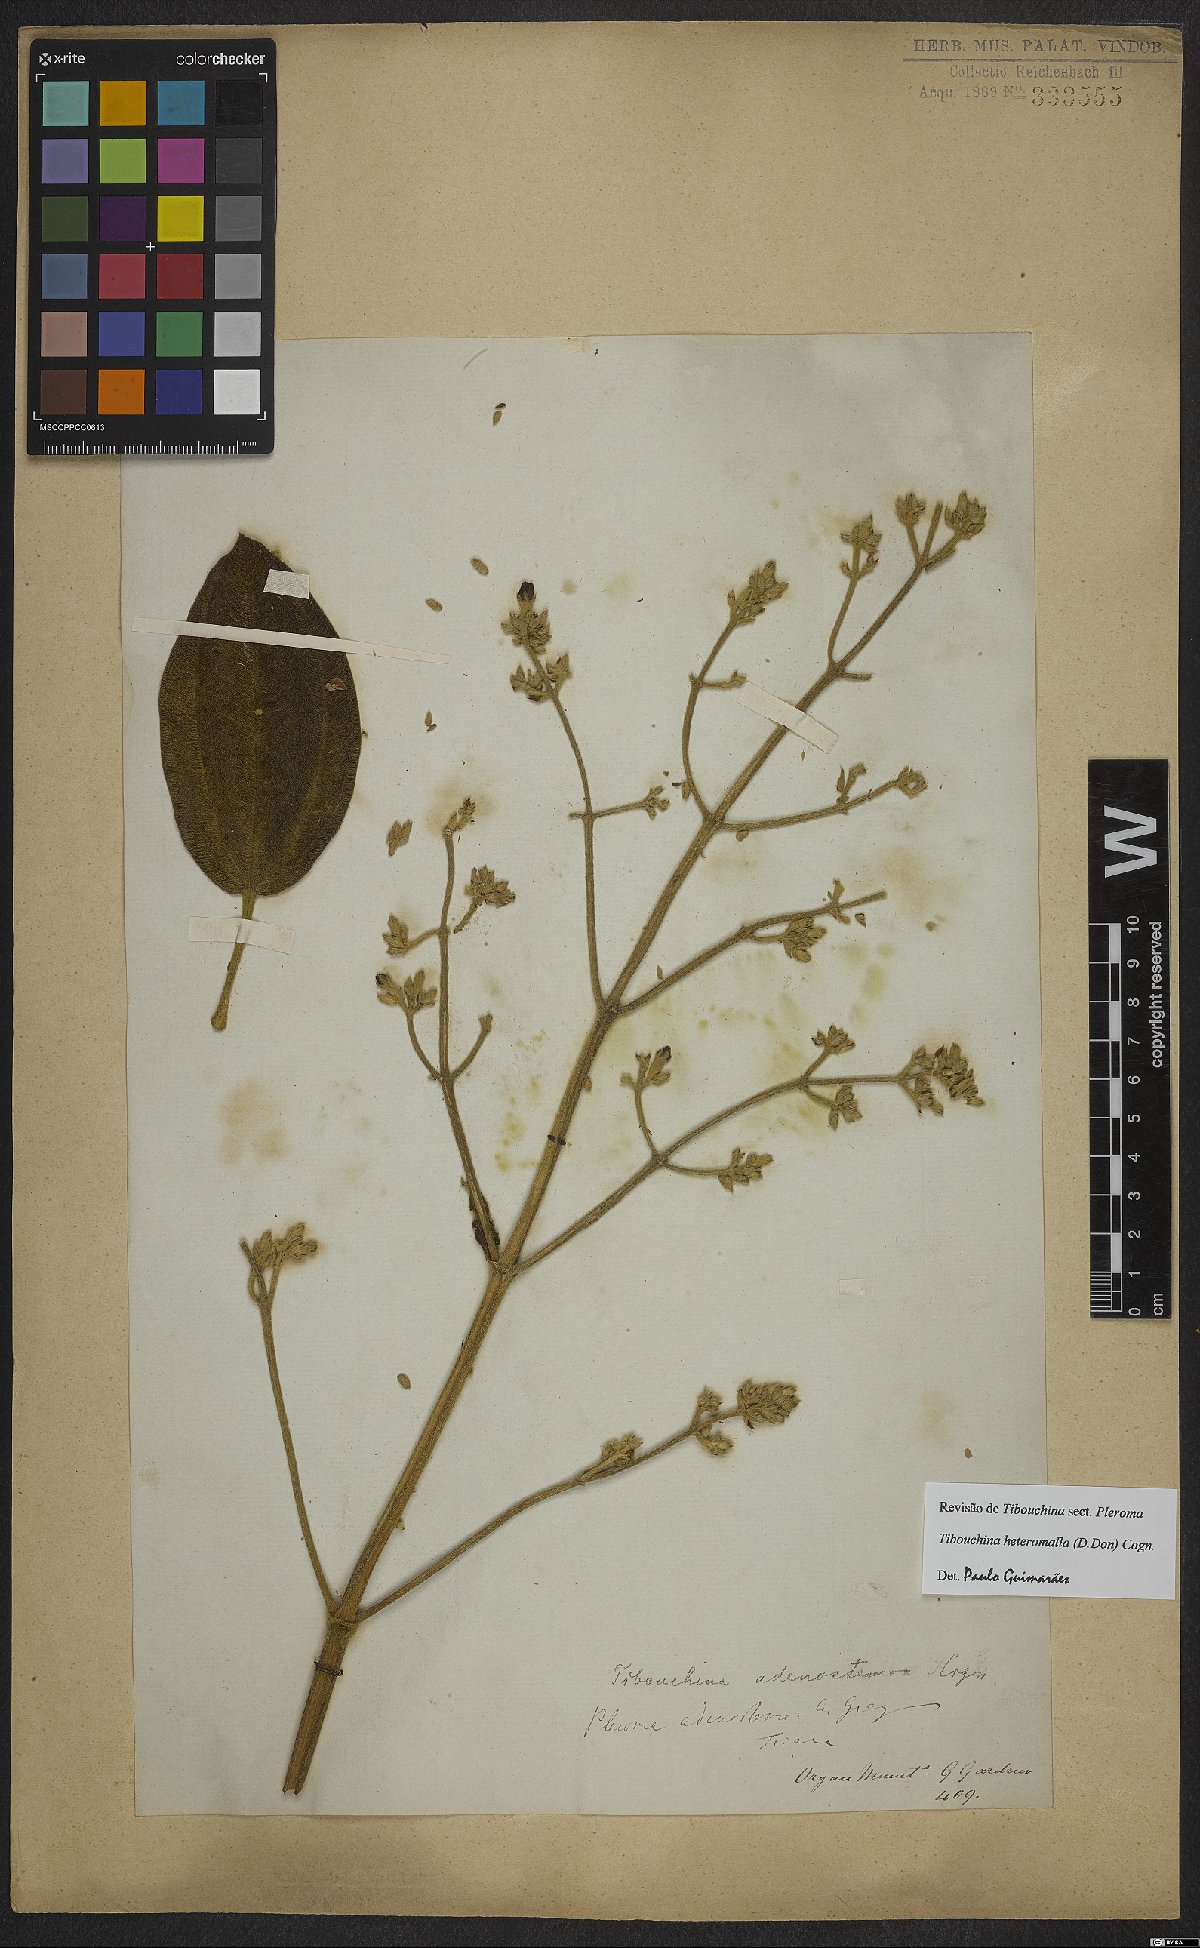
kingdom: Plantae
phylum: Tracheophyta
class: Magnoliopsida
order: Myrtales
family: Melastomataceae
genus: Pleroma
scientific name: Pleroma heteromallum
